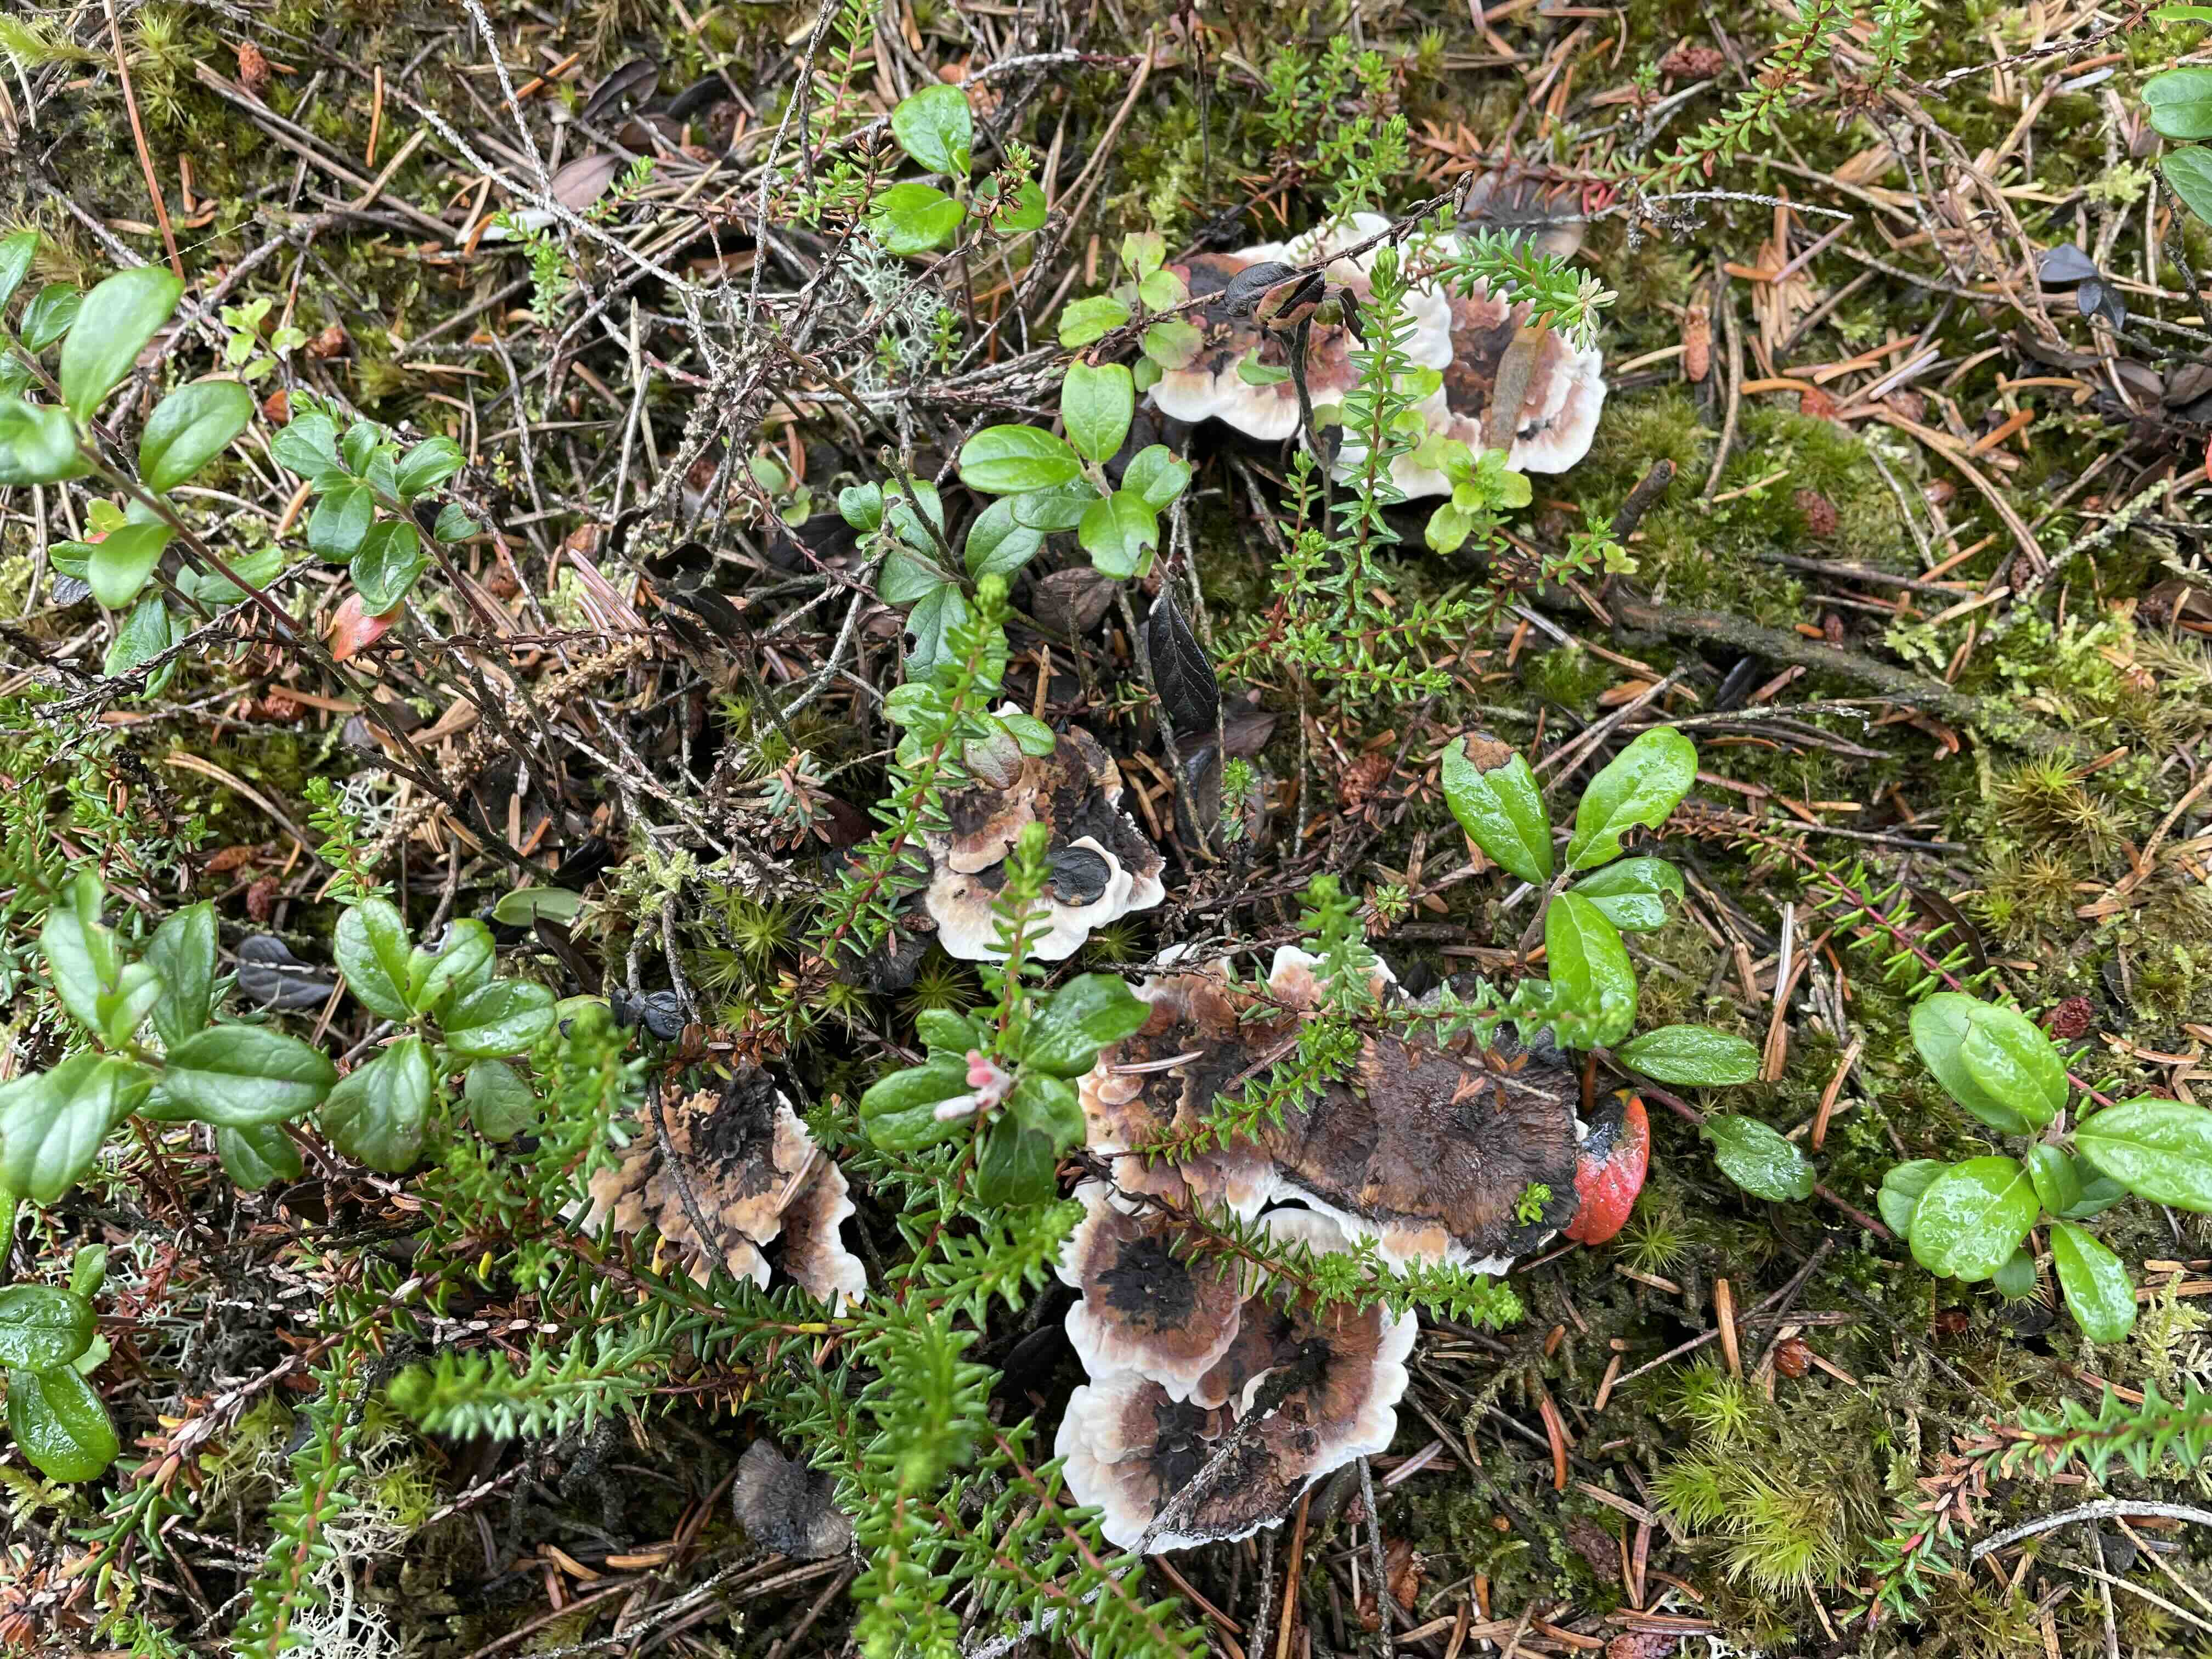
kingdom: Fungi
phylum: Basidiomycota
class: Agaricomycetes
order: Thelephorales
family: Bankeraceae
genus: Hydnellum
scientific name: Hydnellum aurantiacum
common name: orange korkpigsvamp
